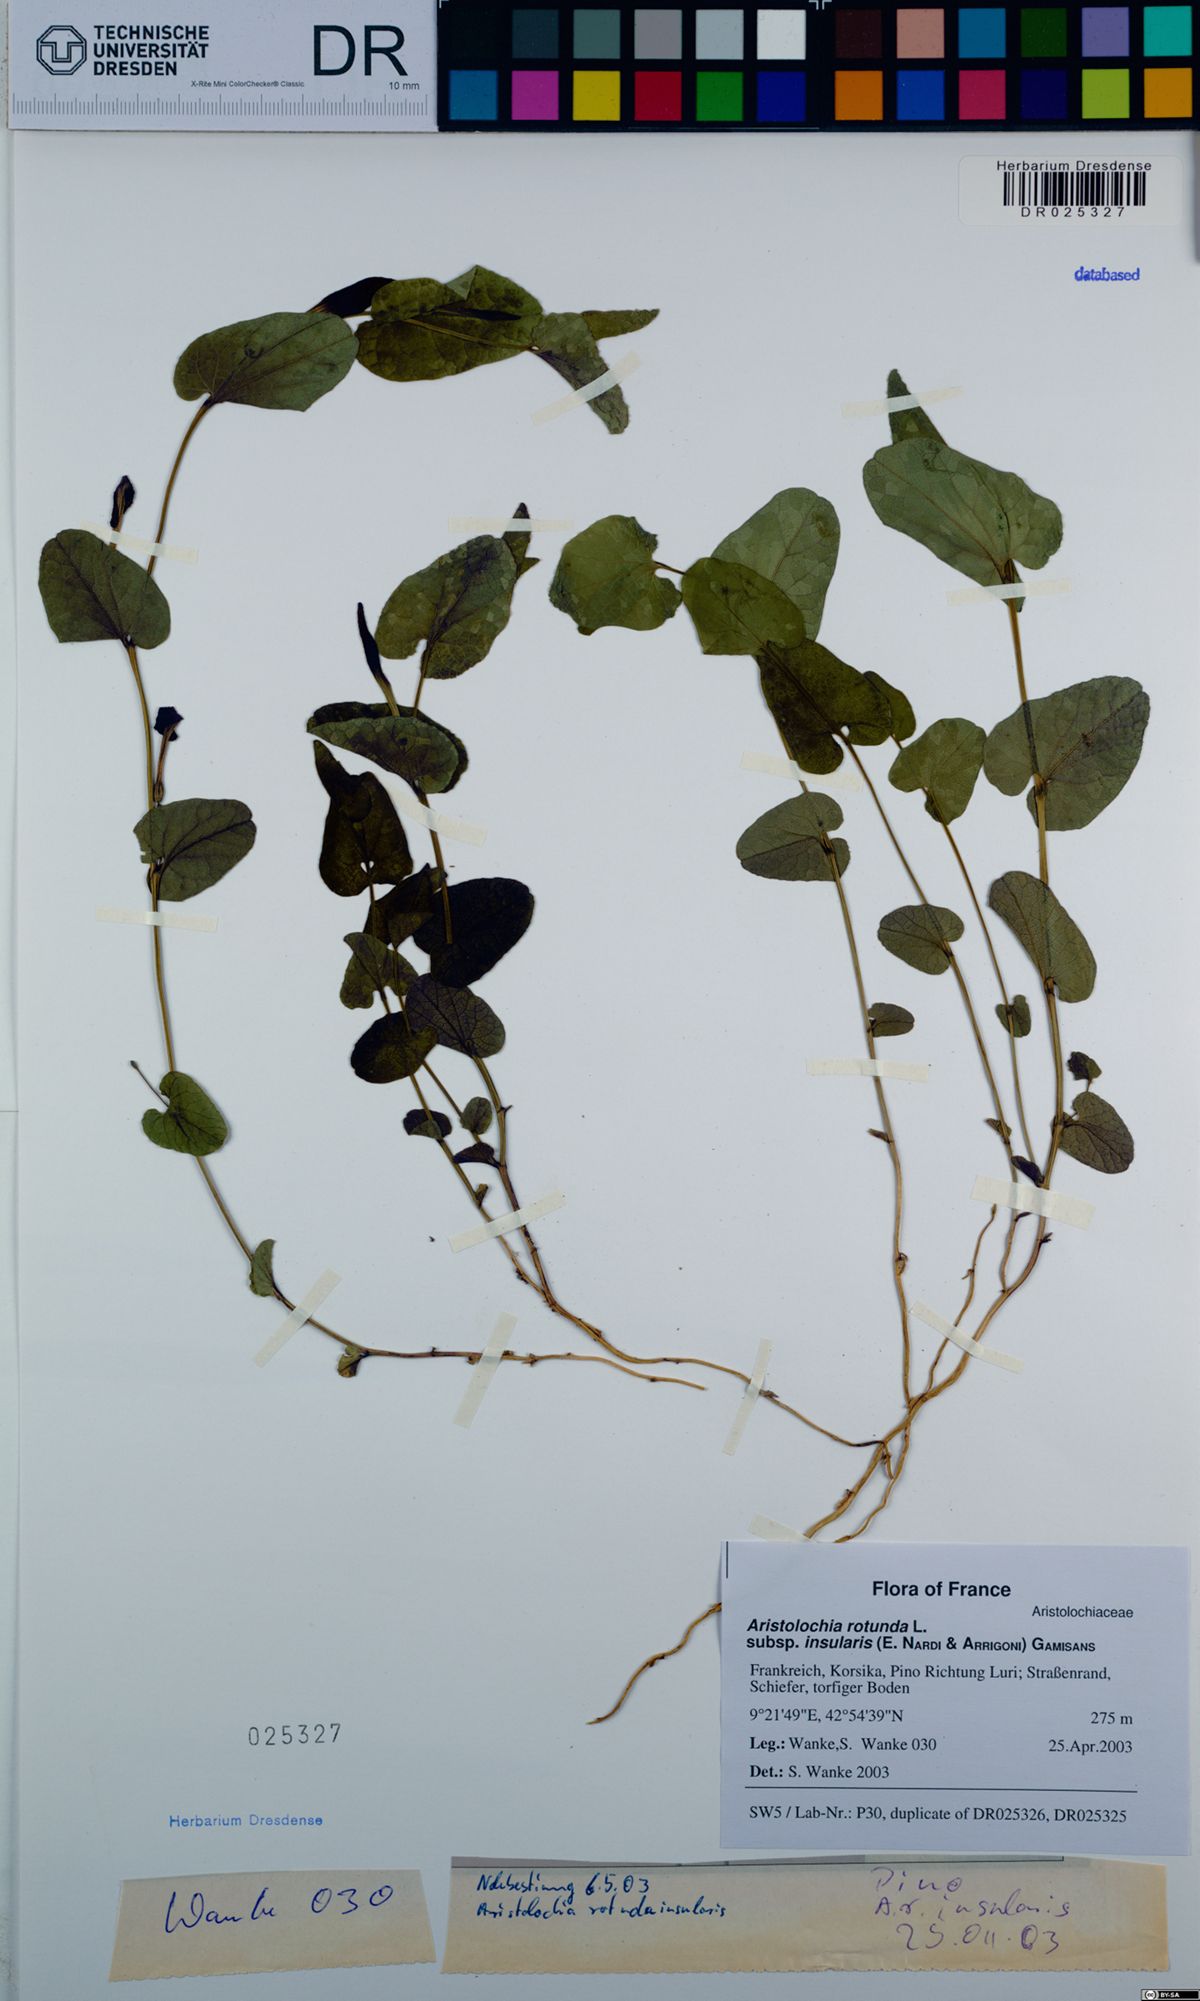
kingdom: Plantae
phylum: Tracheophyta
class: Magnoliopsida
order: Piperales
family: Aristolochiaceae
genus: Aristolochia
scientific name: Aristolochia rotunda
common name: Smearwort
